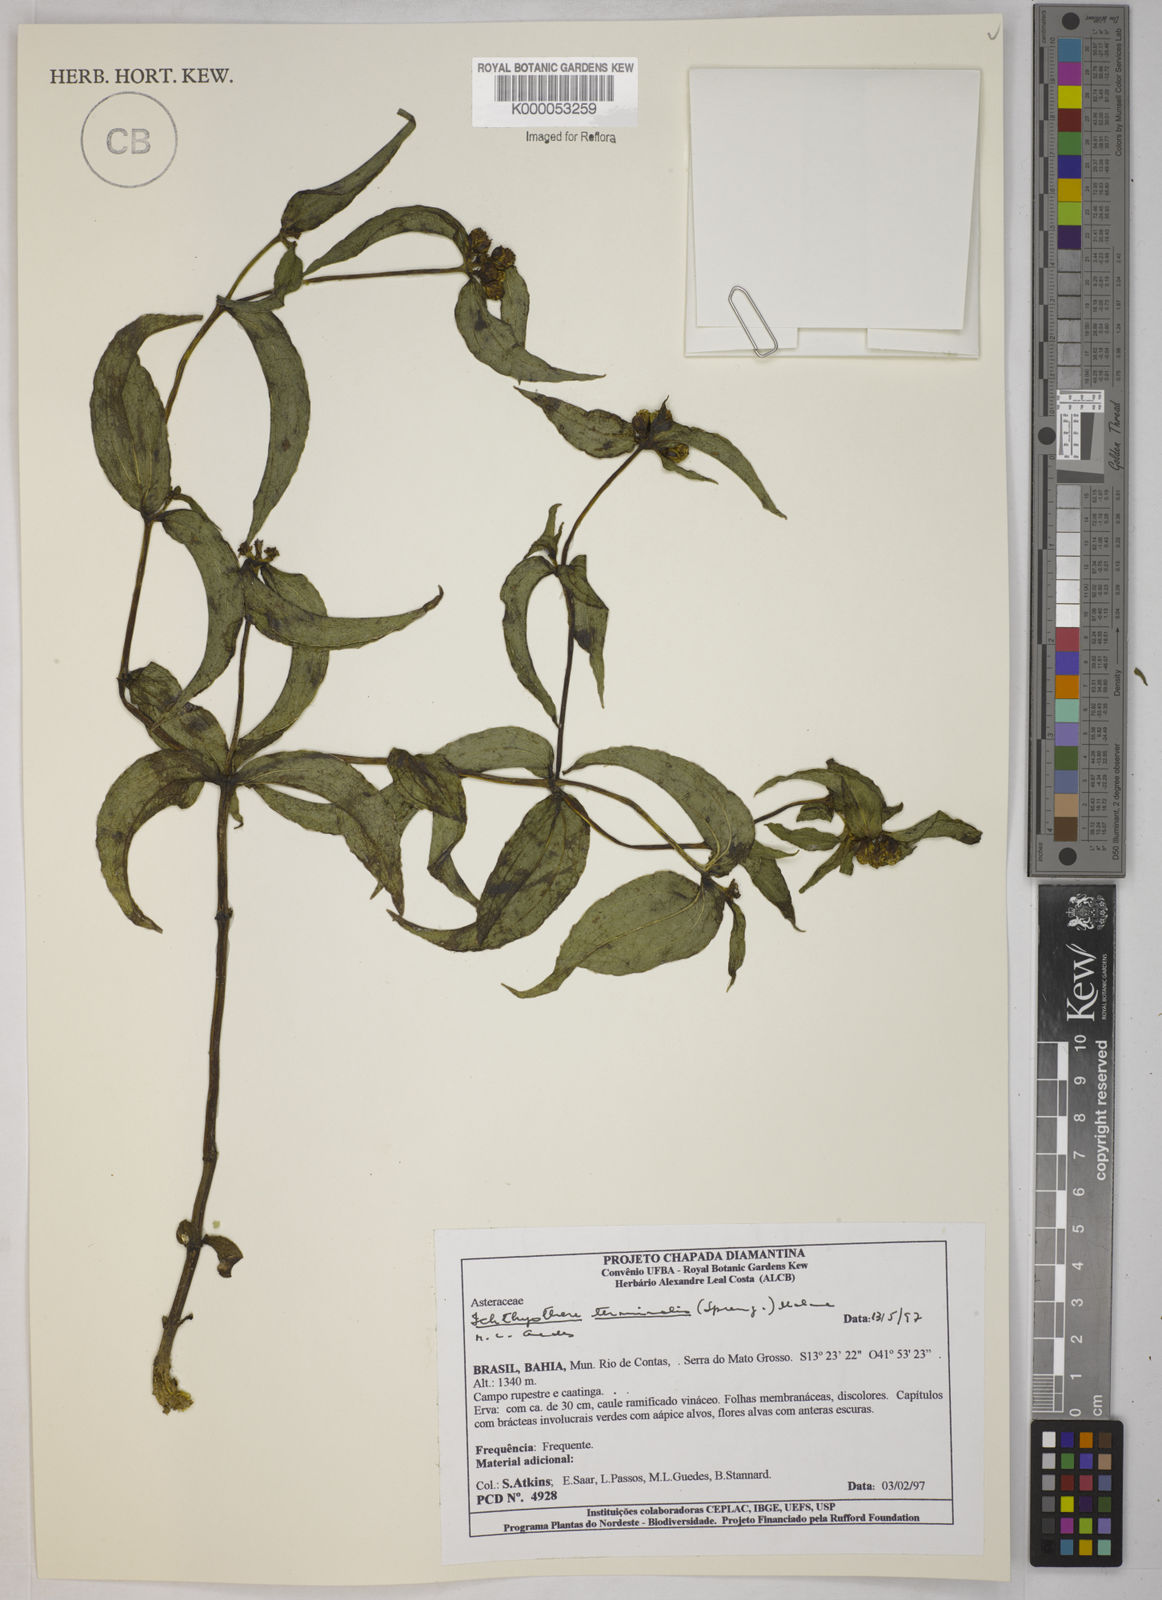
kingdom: Plantae
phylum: Tracheophyta
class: Magnoliopsida
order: Asterales
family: Asteraceae
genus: Ichthyothere
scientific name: Ichthyothere terminalis
